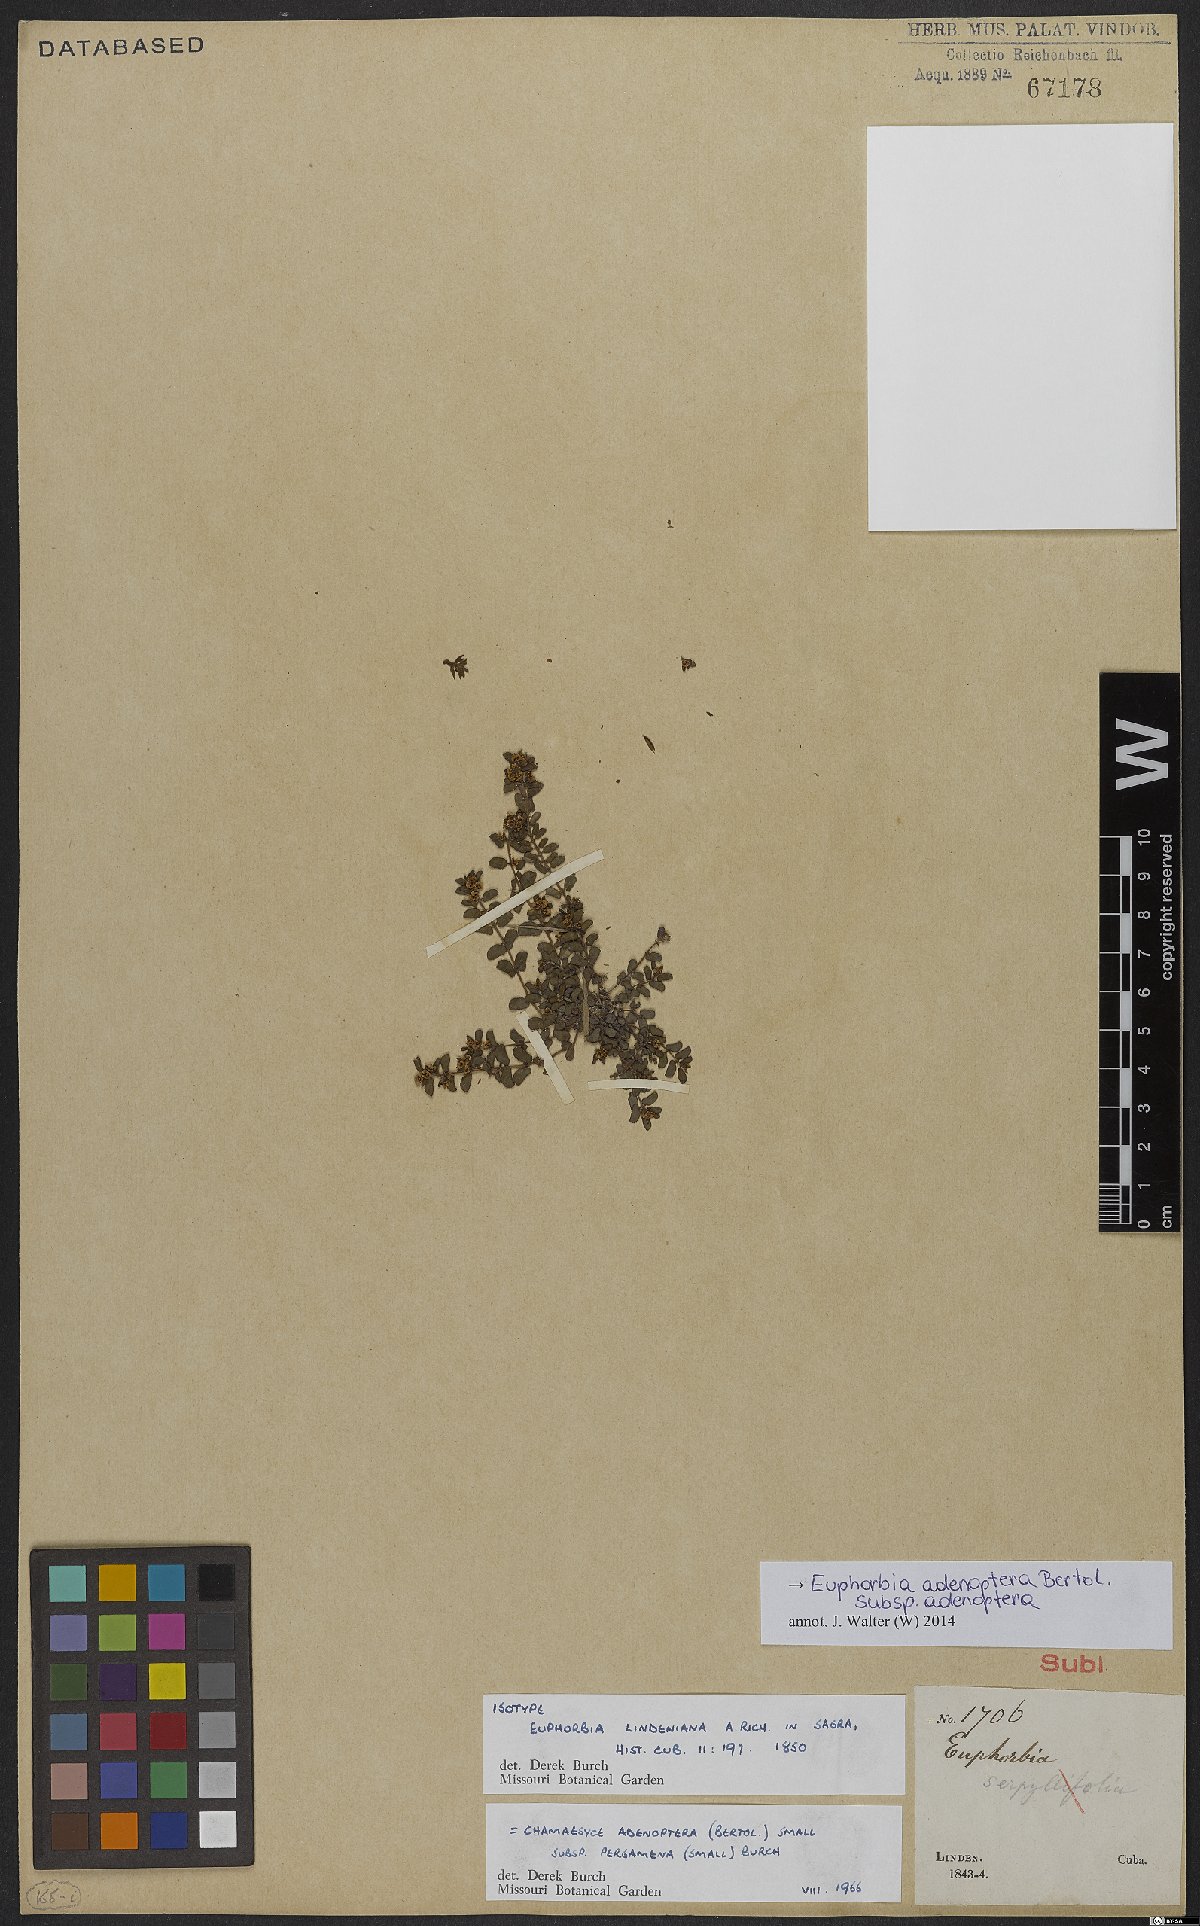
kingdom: Plantae
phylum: Tracheophyta
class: Magnoliopsida
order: Malpighiales
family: Euphorbiaceae
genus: Euphorbia
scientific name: Euphorbia adenoptera
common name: Southern florida sandmat
